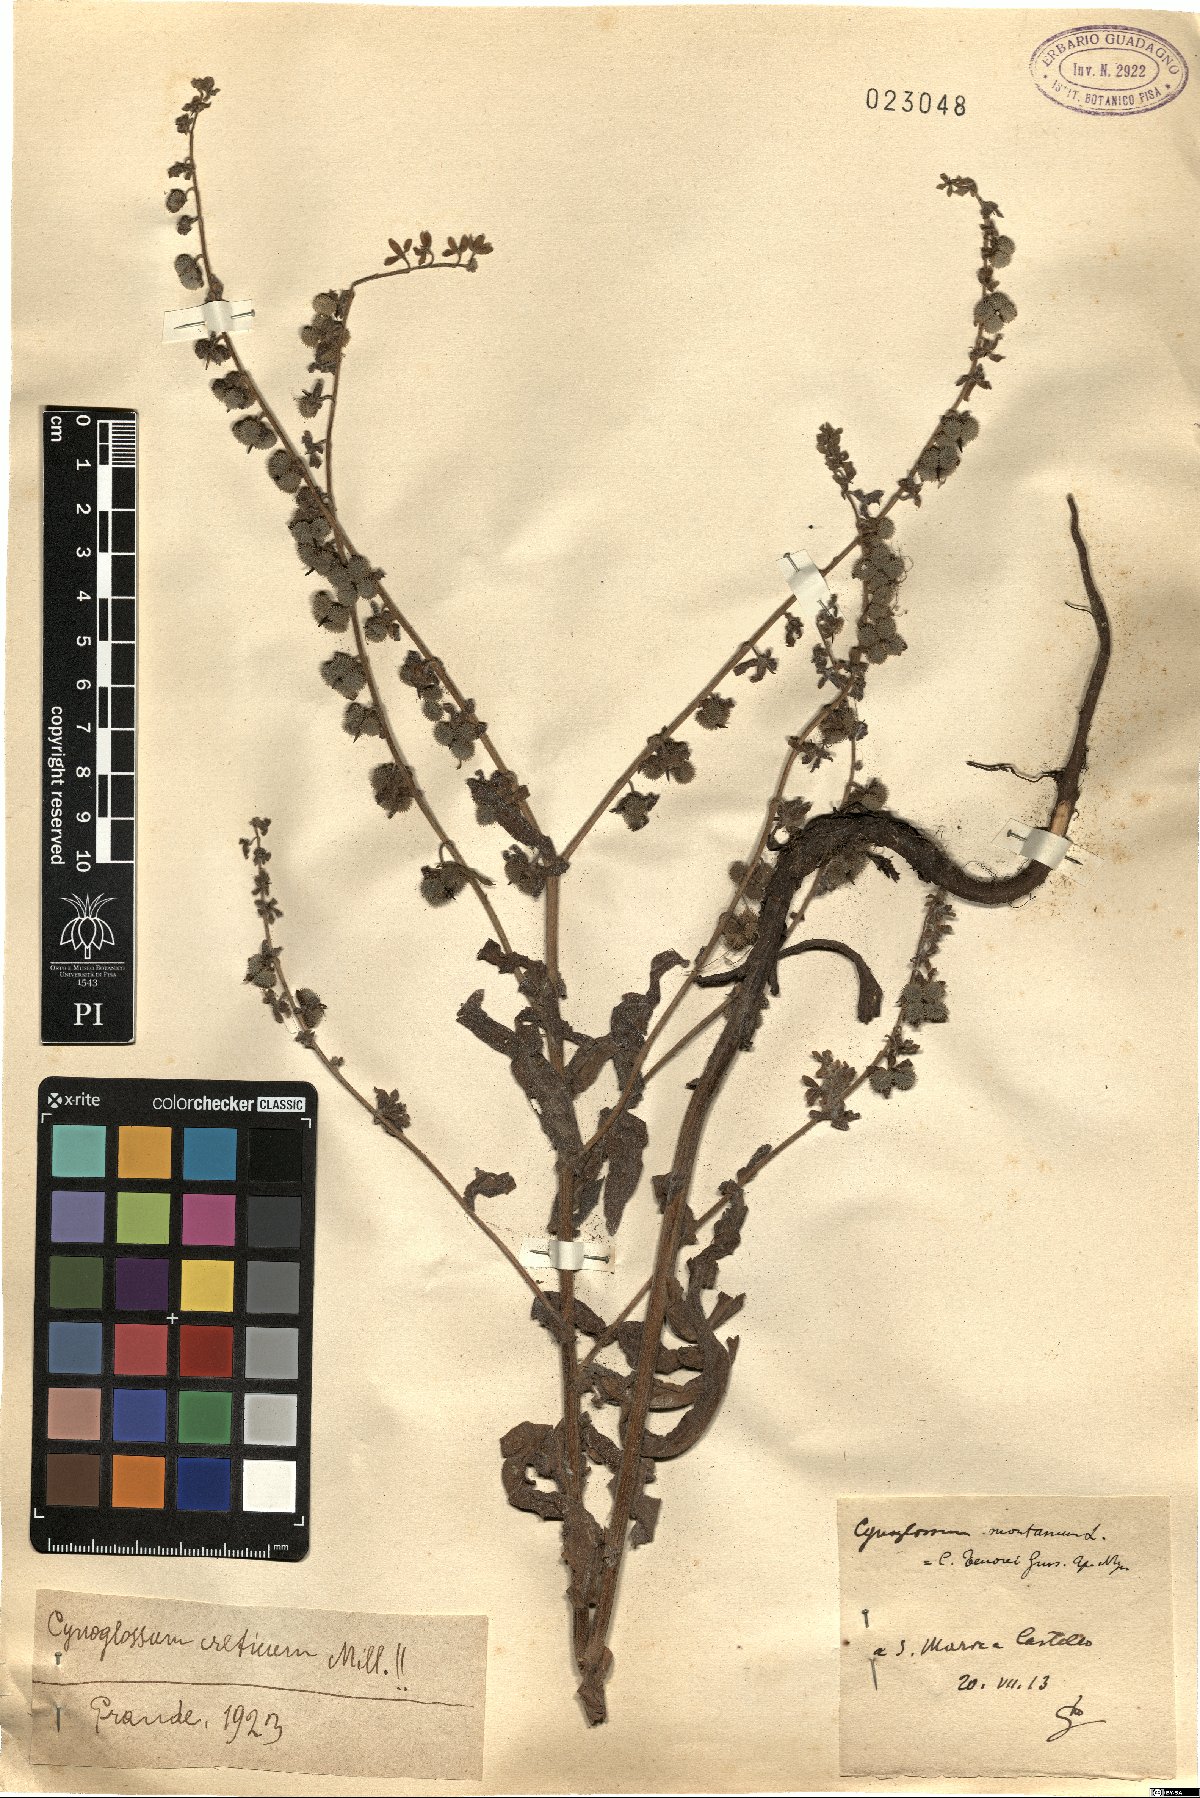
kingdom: Plantae
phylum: Tracheophyta
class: Magnoliopsida
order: Boraginales
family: Boraginaceae
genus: Cynoglossum
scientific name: Cynoglossum creticum
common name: Blue hound's tongue
